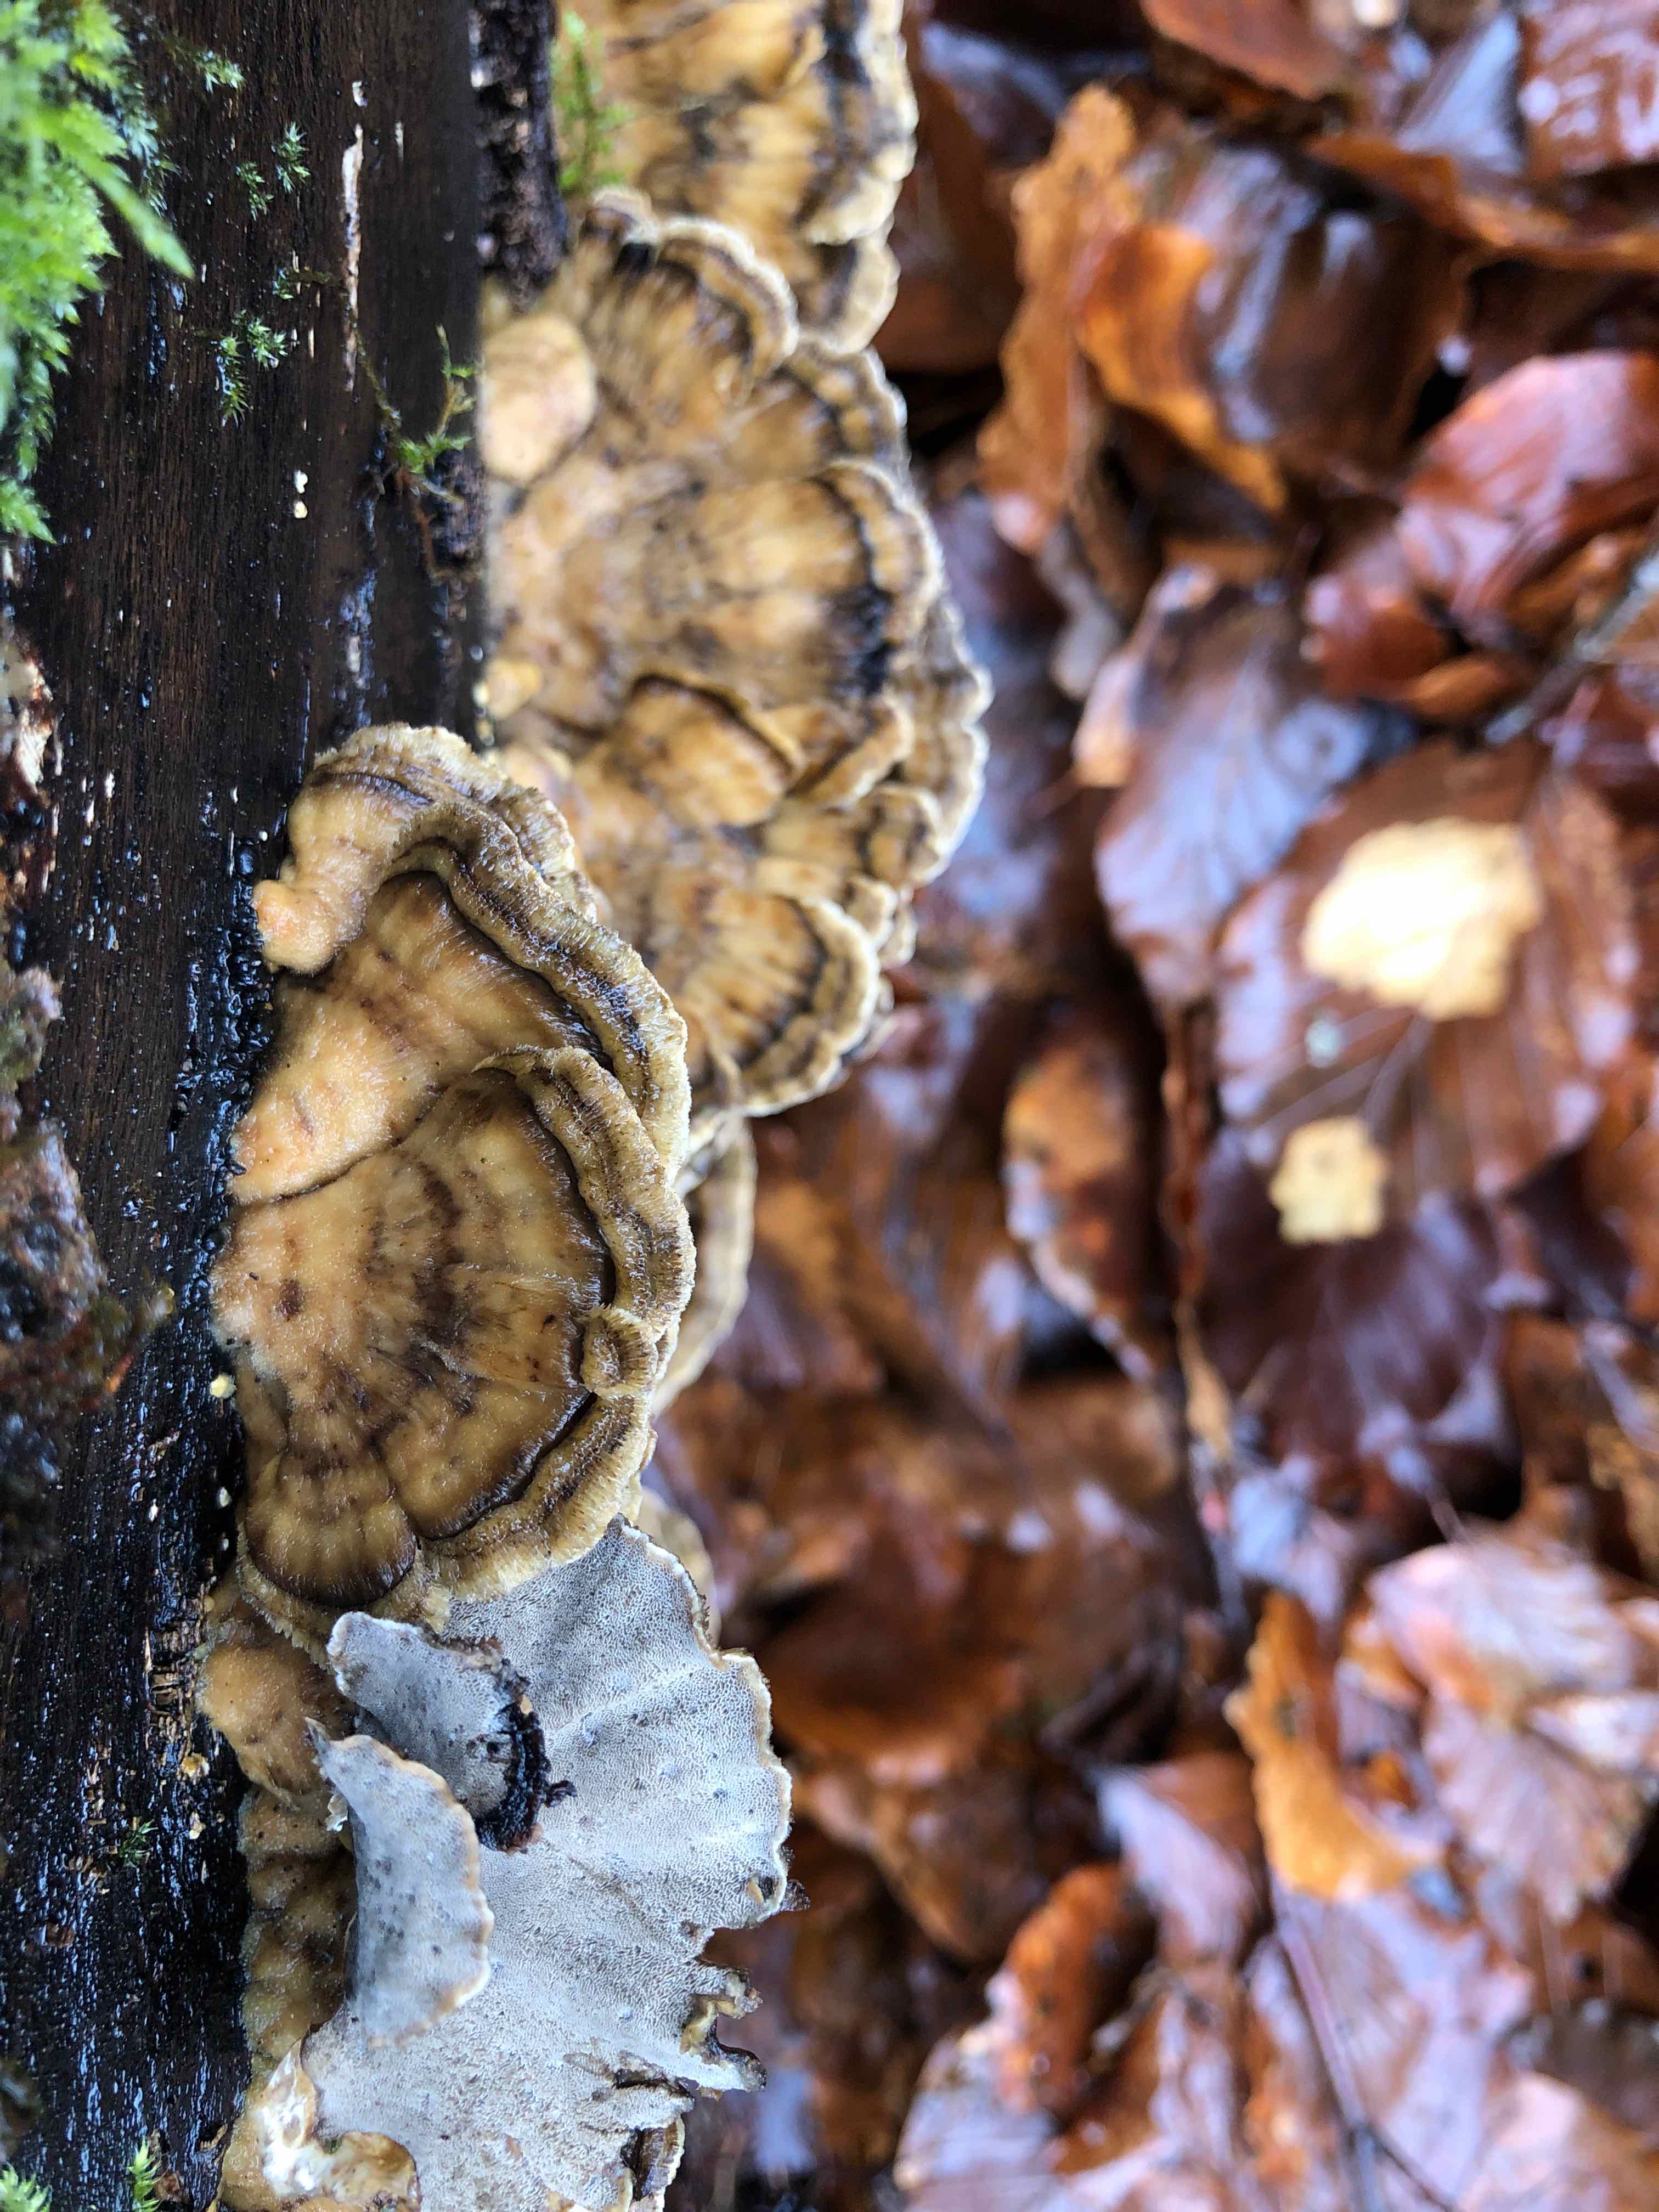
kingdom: Fungi
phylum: Basidiomycota
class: Agaricomycetes
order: Polyporales
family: Phanerochaetaceae
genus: Bjerkandera
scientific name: Bjerkandera adusta
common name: sveden sodporesvamp
